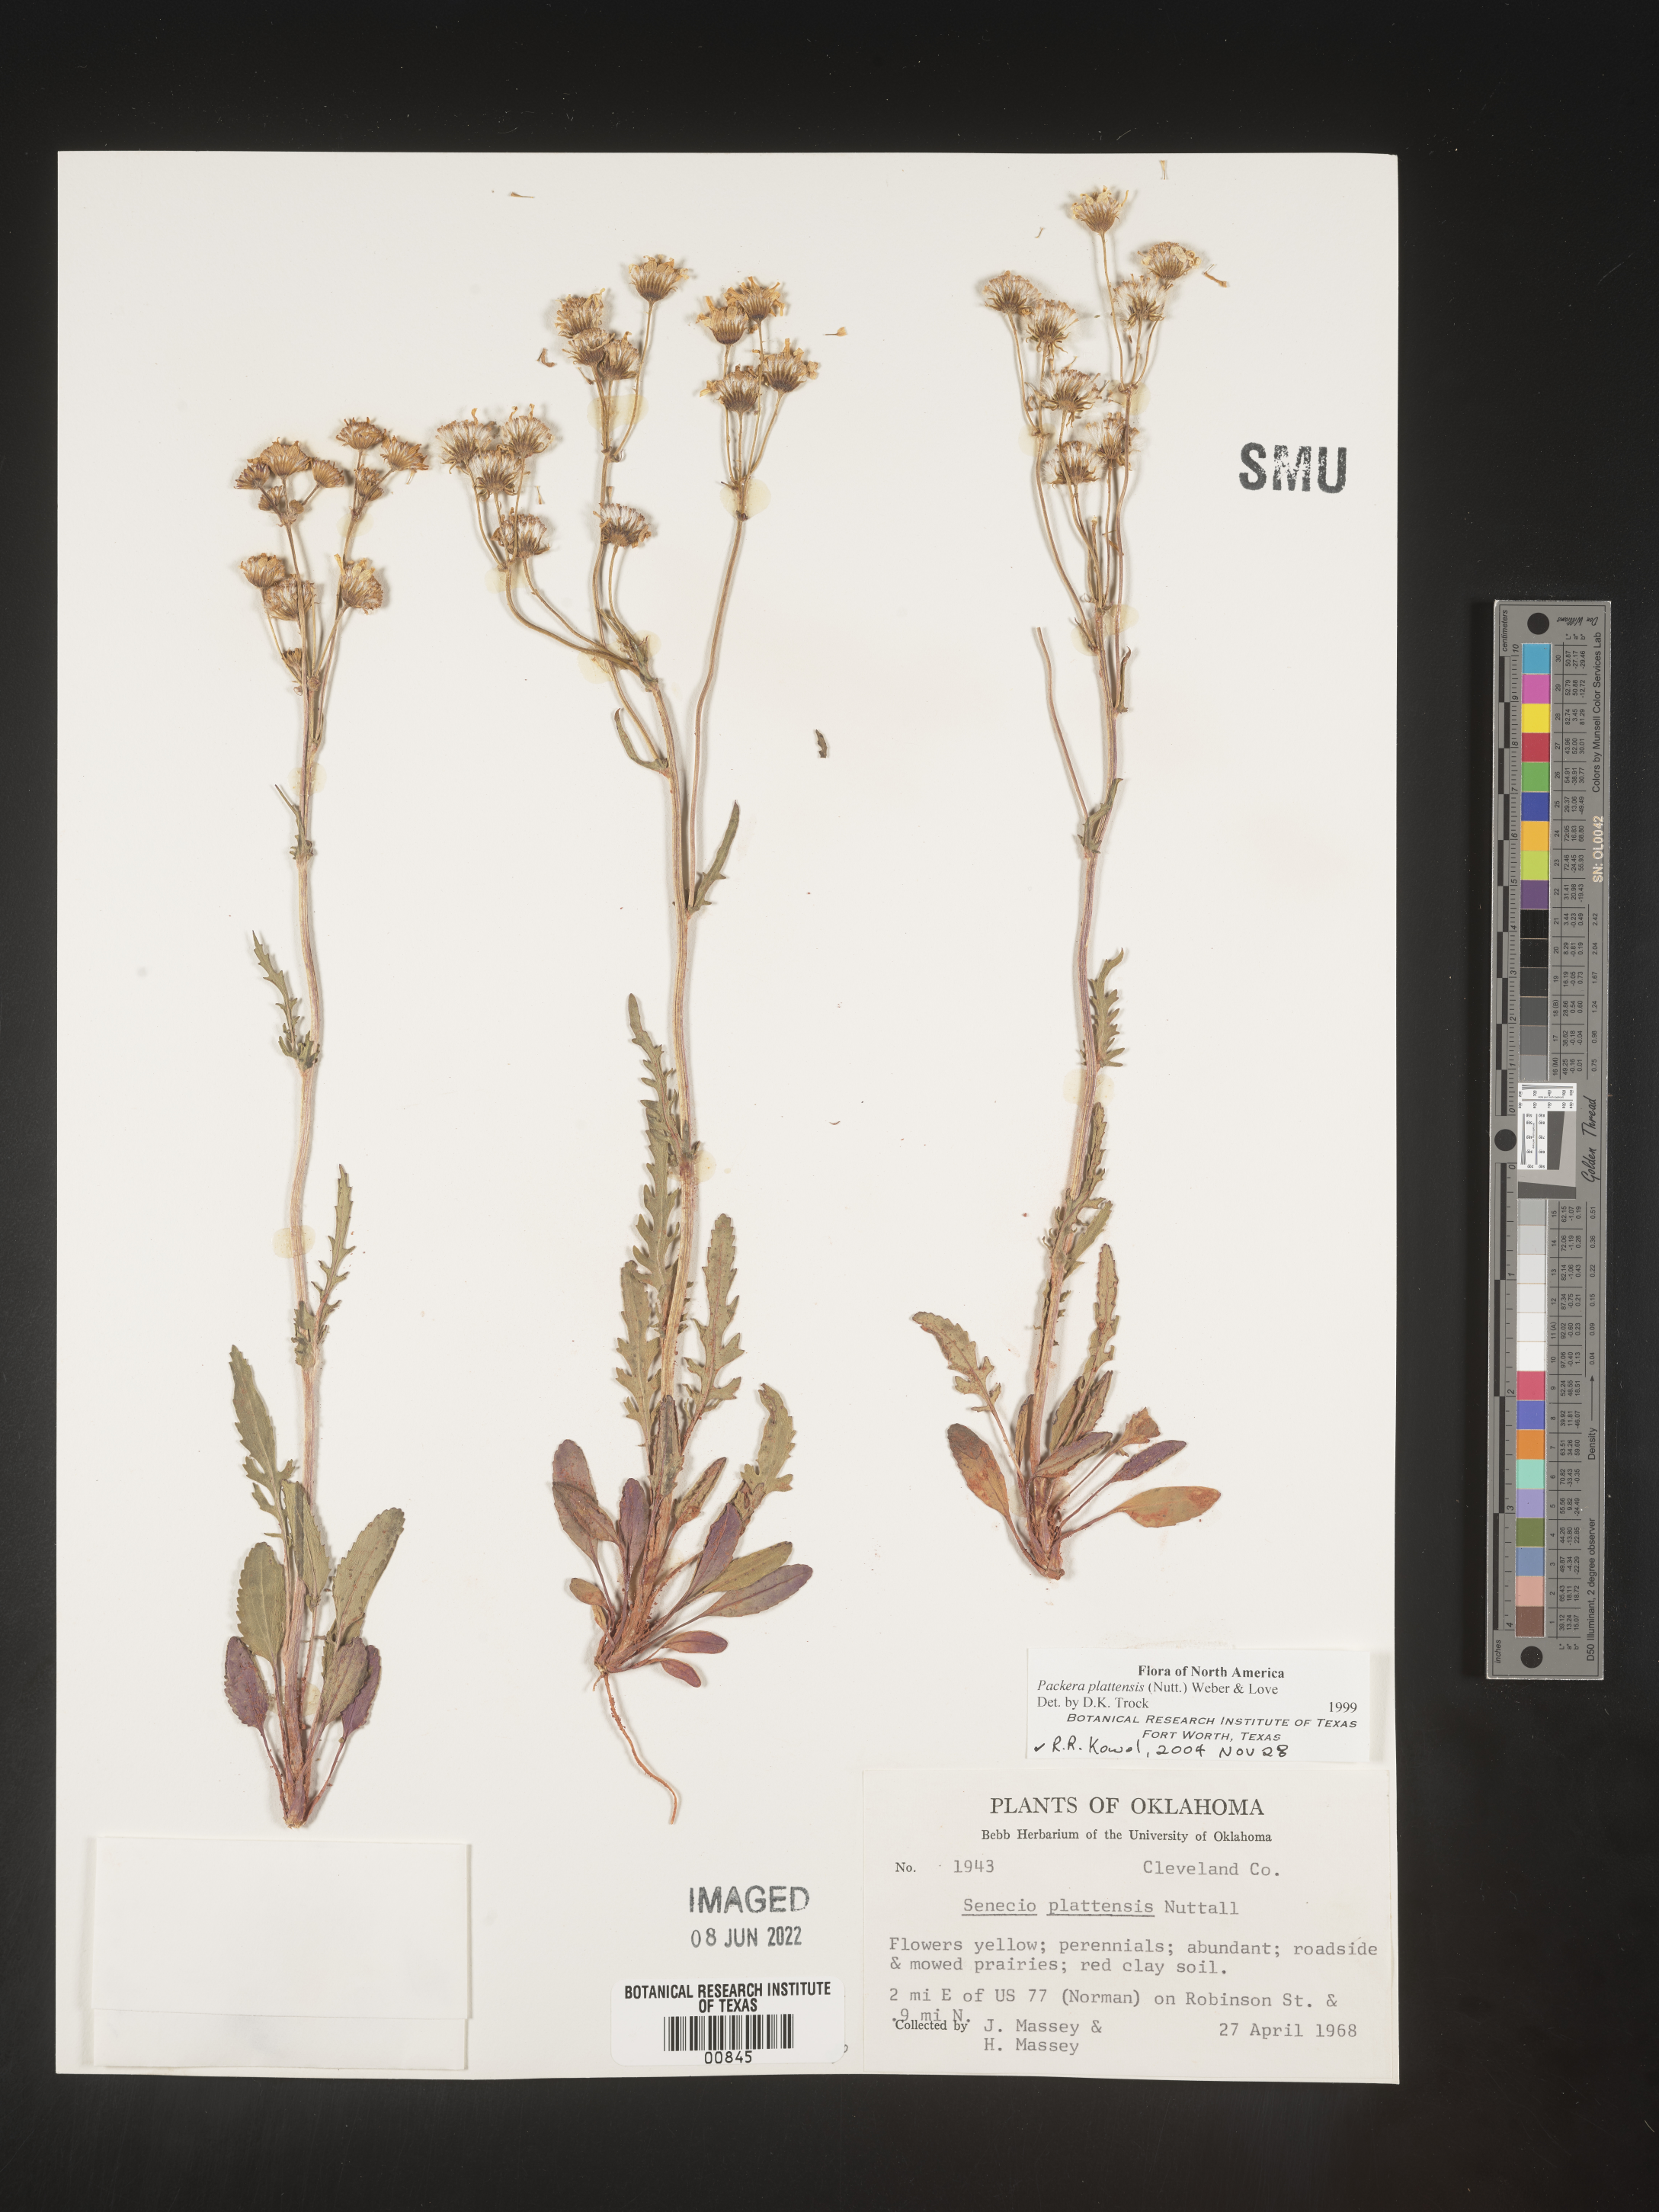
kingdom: Plantae
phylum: Tracheophyta
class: Magnoliopsida
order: Asterales
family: Asteraceae
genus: Packera
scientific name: Packera plattensis
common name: Prairie groundsel
